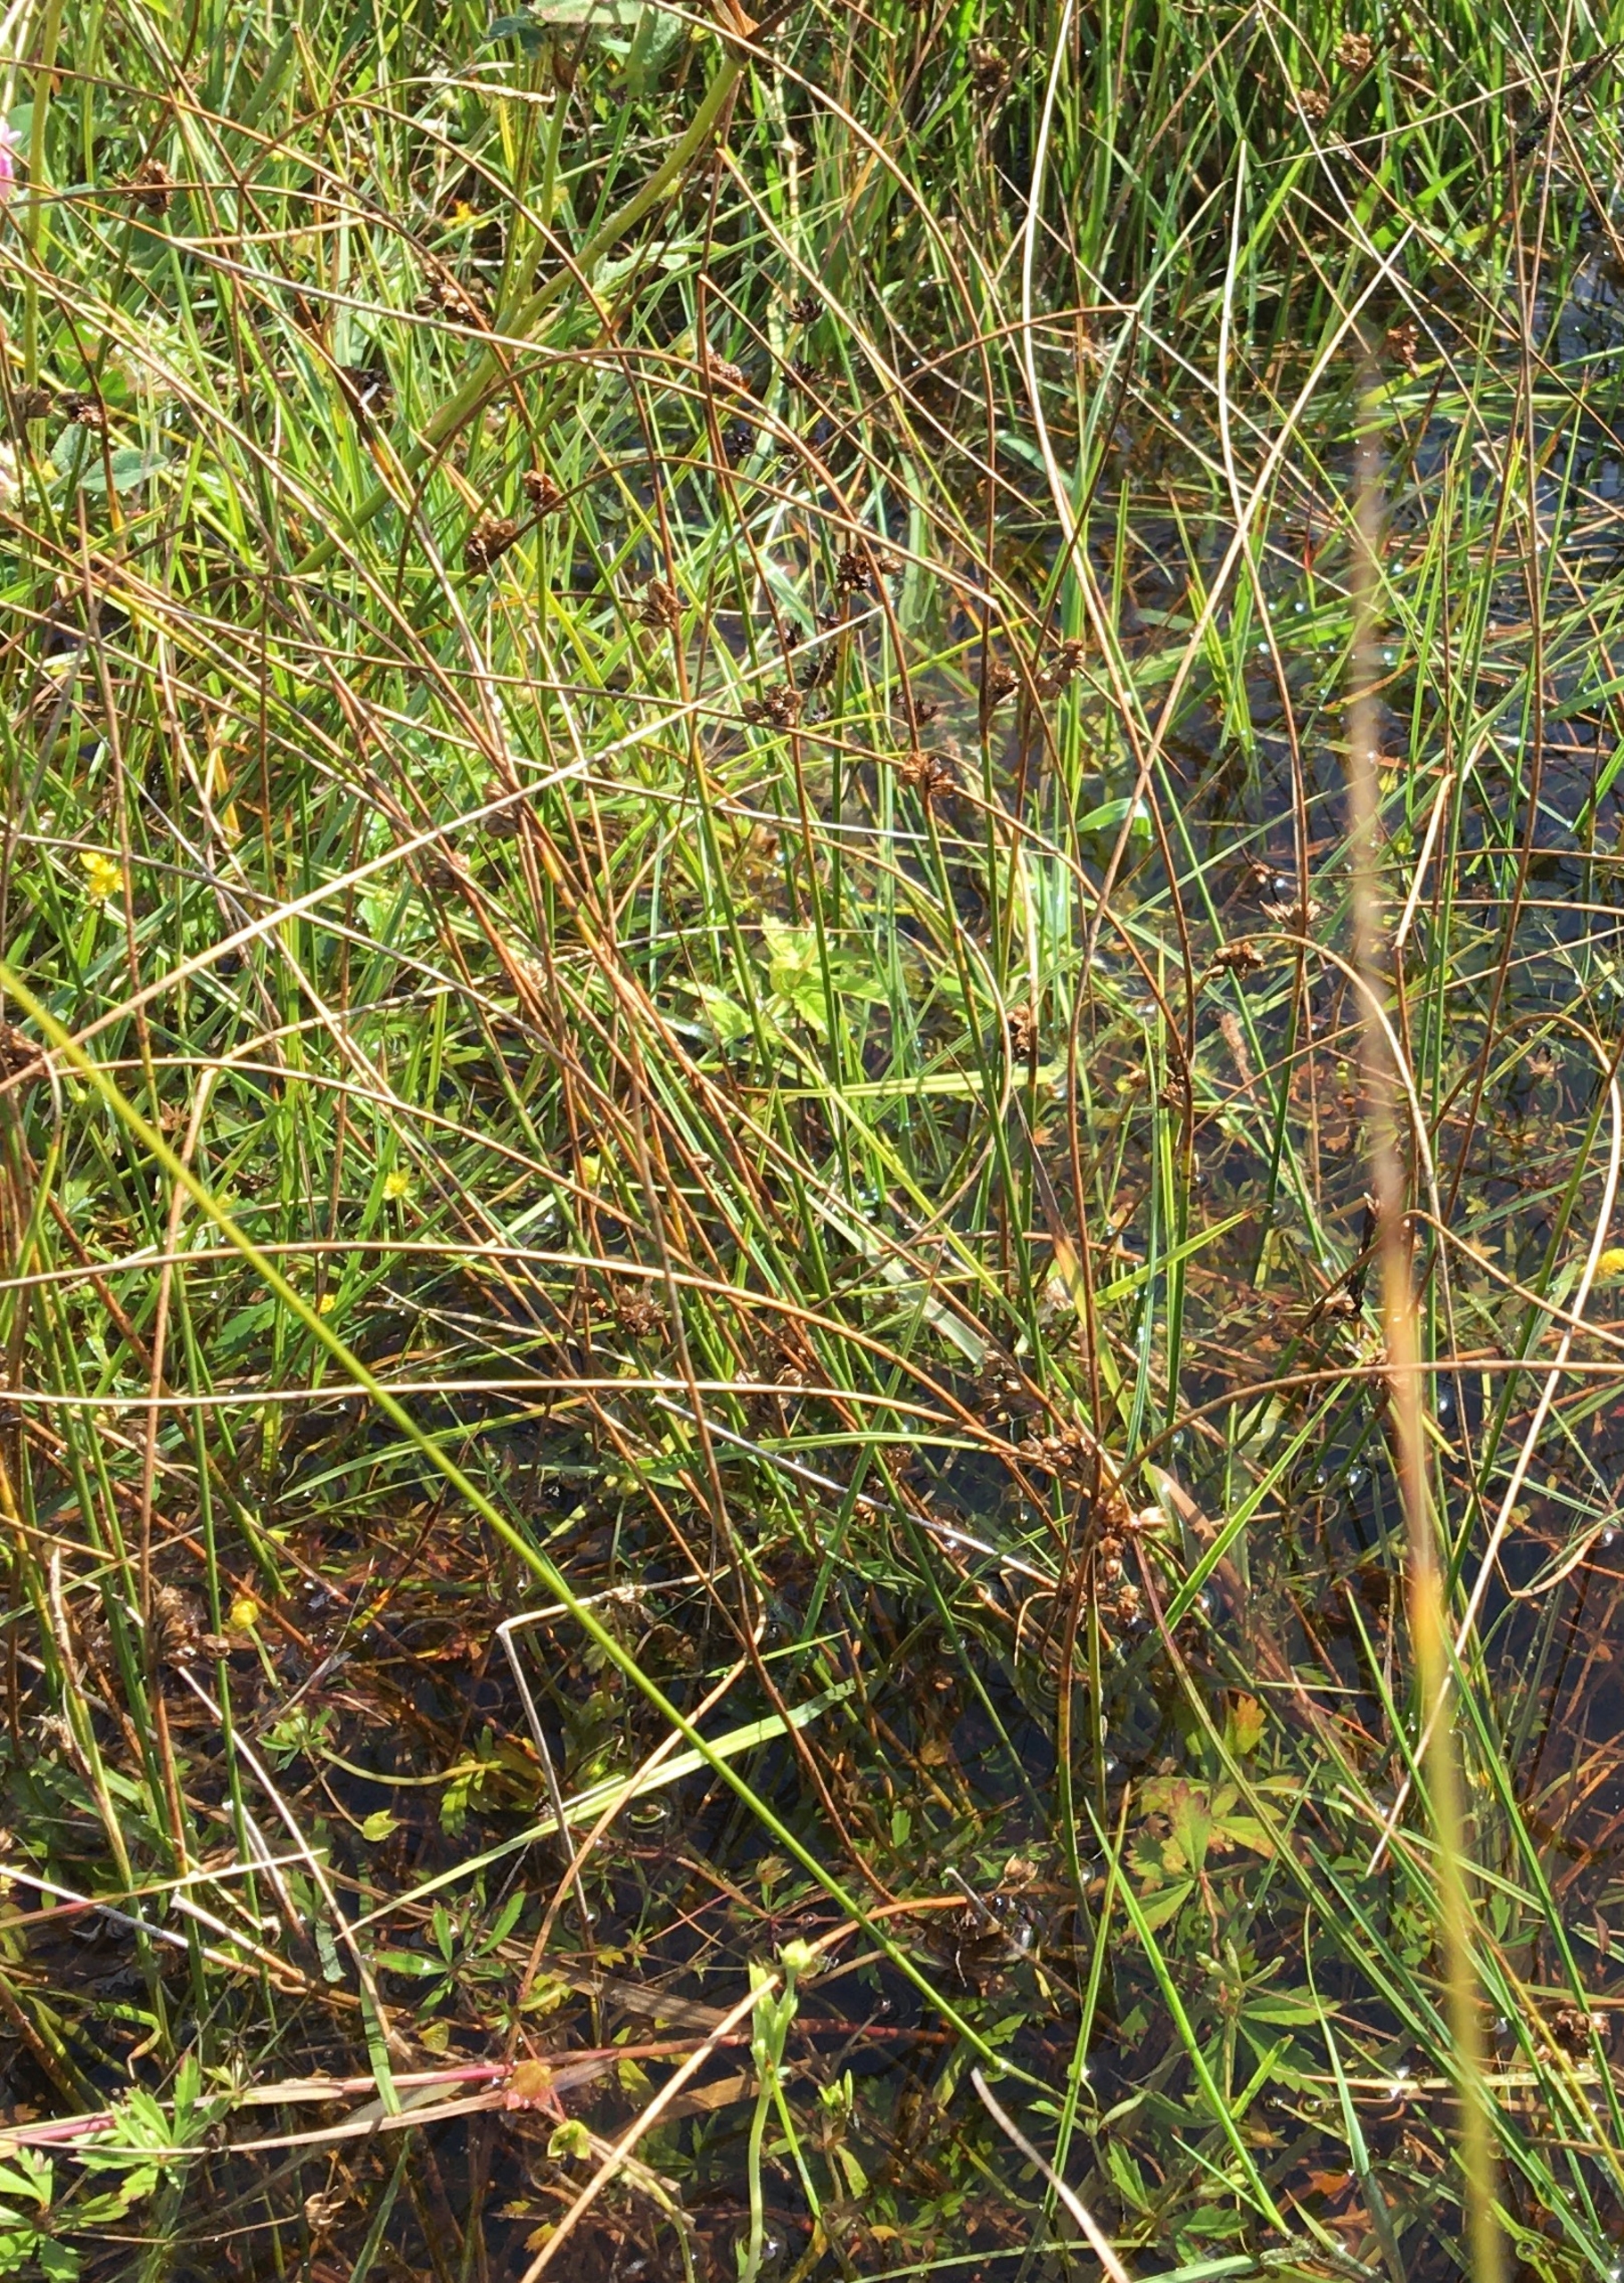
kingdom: Plantae
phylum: Tracheophyta
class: Liliopsida
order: Poales
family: Juncaceae
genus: Juncus
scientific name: Juncus filiformis
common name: Tråd-siv
